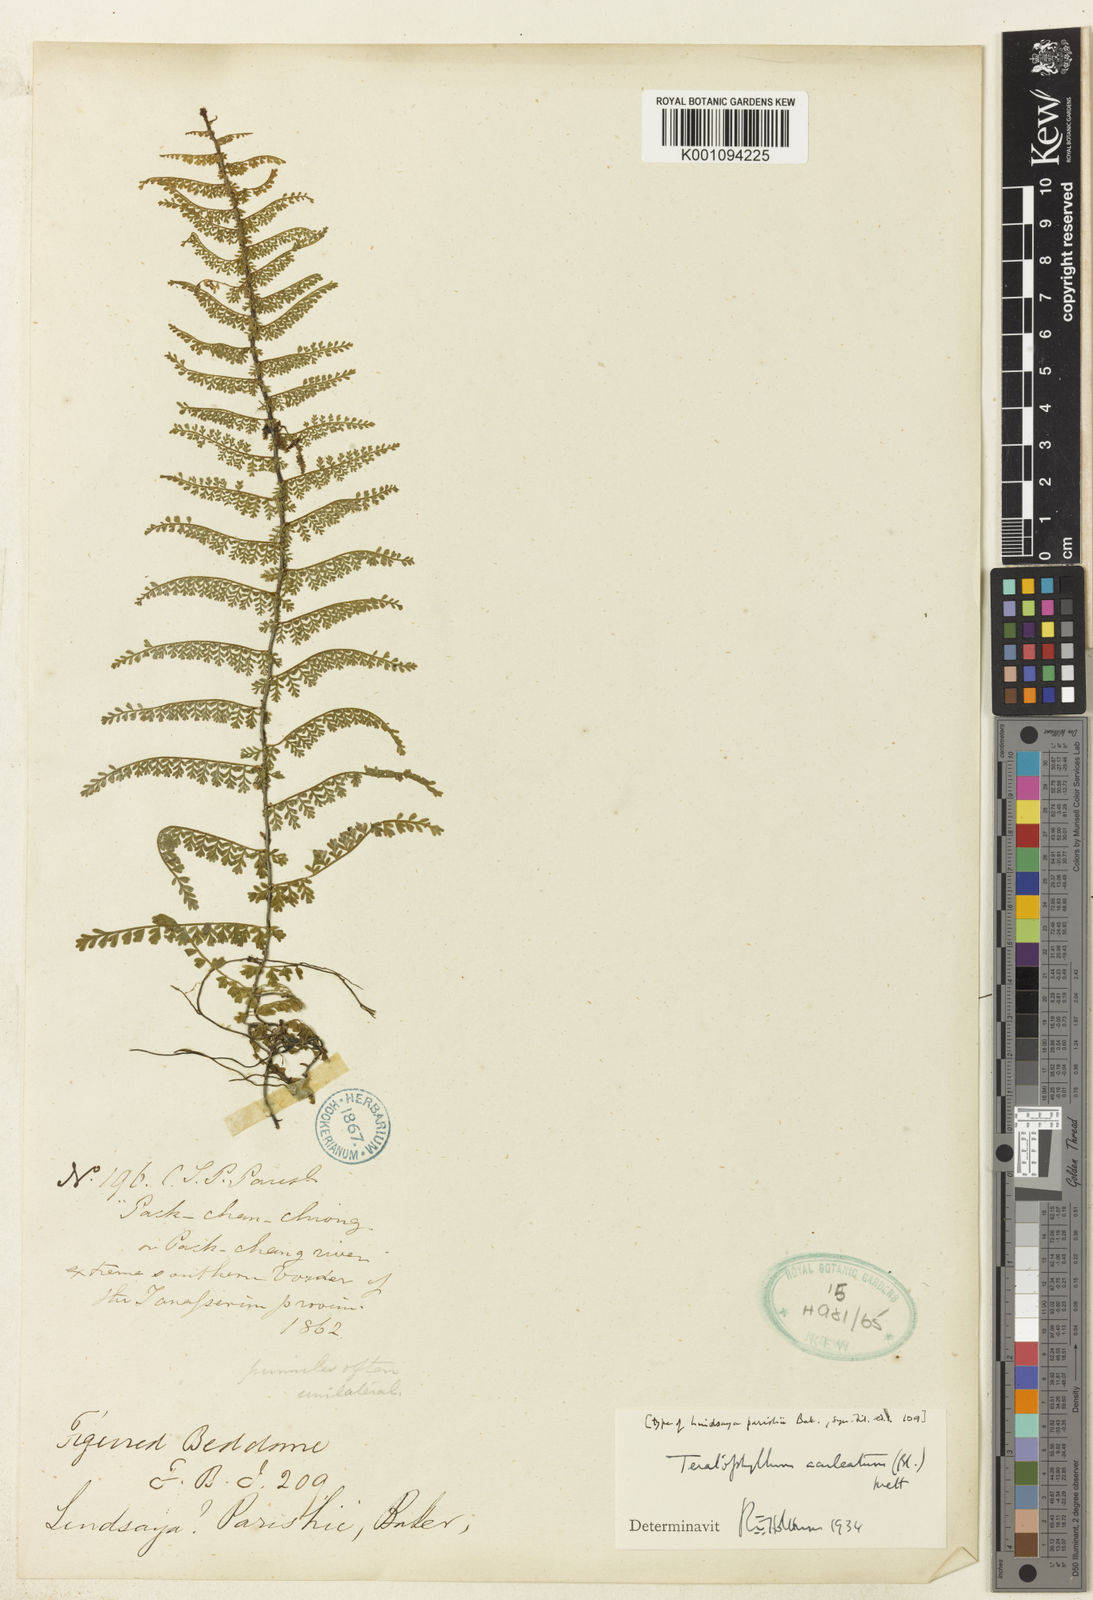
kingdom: Plantae
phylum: Tracheophyta
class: Polypodiopsida
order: Polypodiales
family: Dryopteridaceae
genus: Teratophyllum
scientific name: Teratophyllum aculeatum
